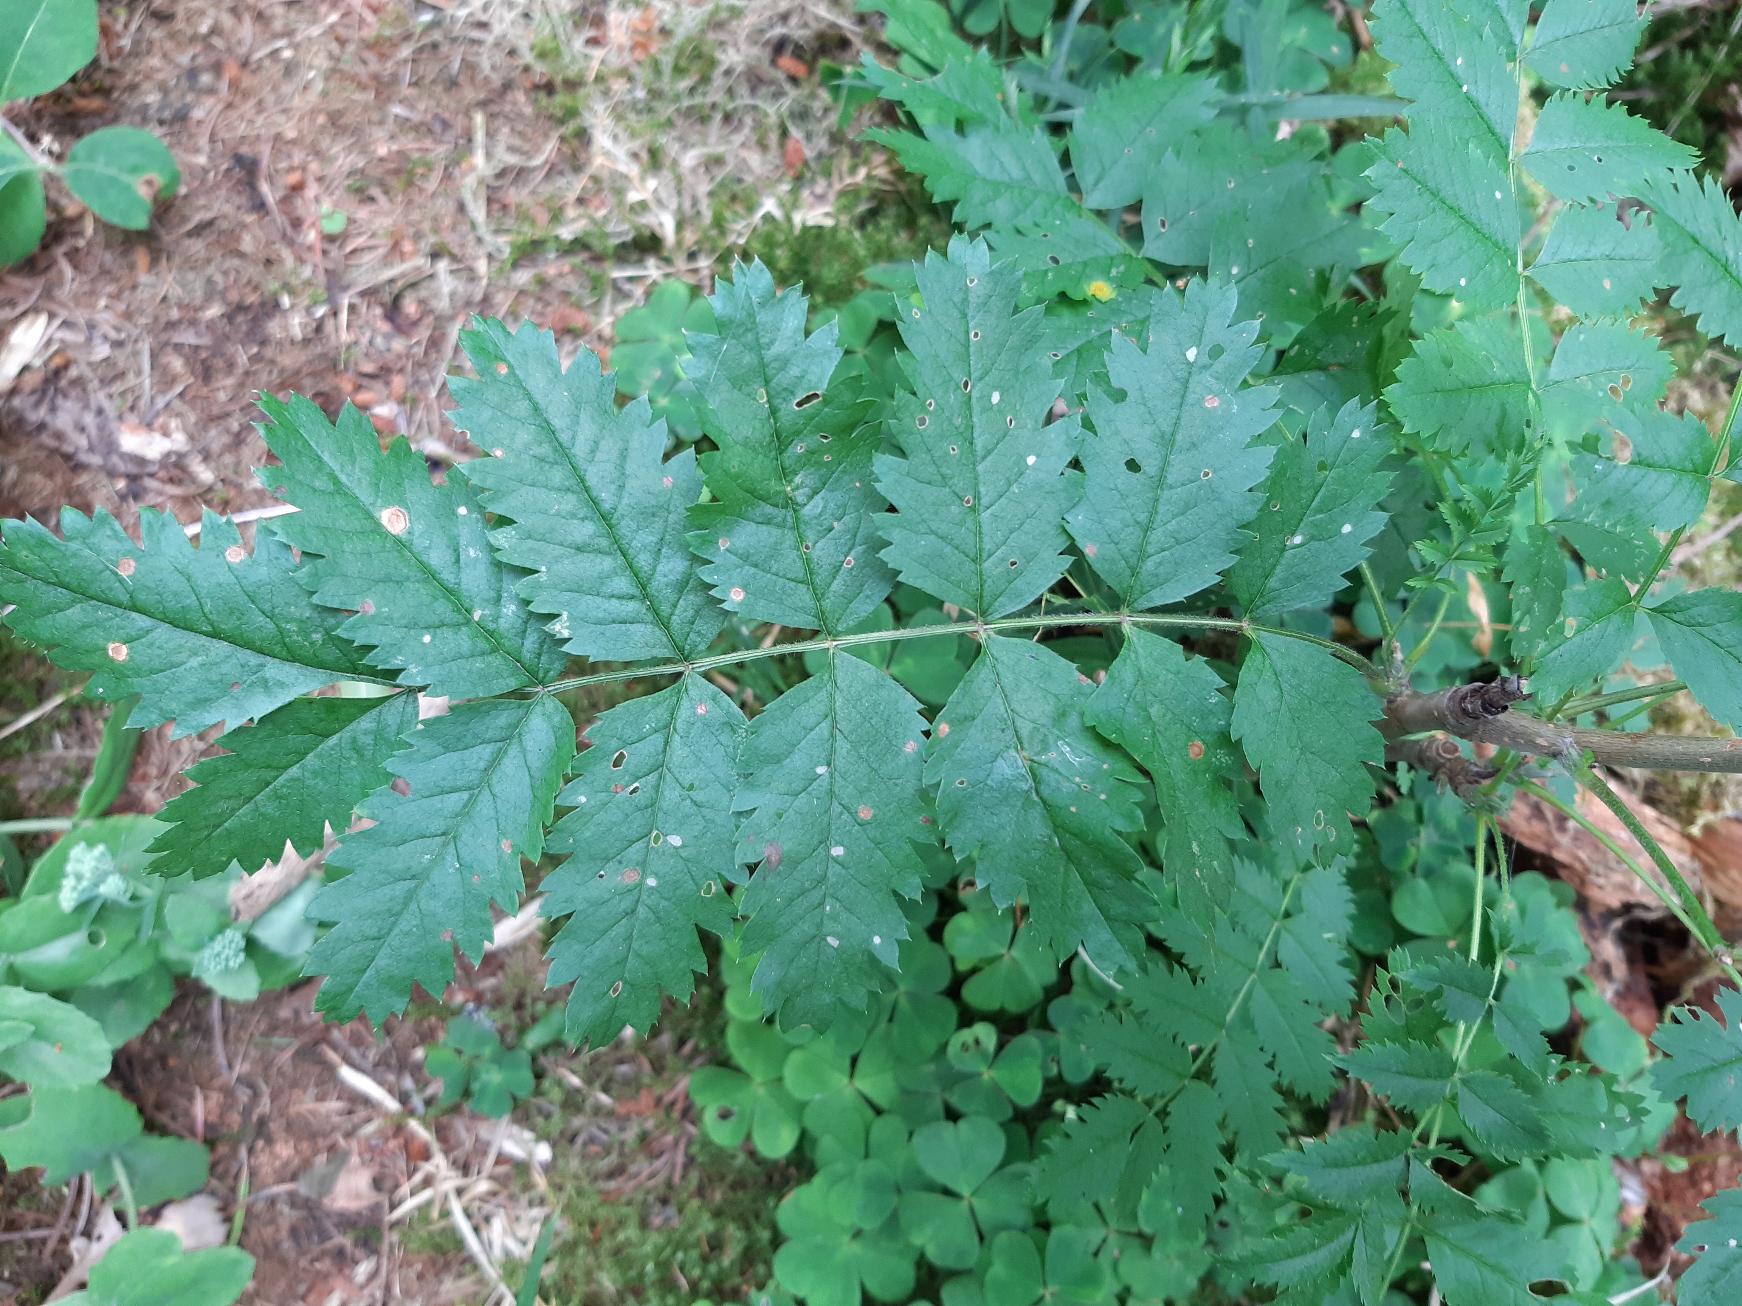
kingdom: Plantae
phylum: Tracheophyta
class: Magnoliopsida
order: Rosales
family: Rosaceae
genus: Sorbus
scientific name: Sorbus aucuparia
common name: Almindelig røn
